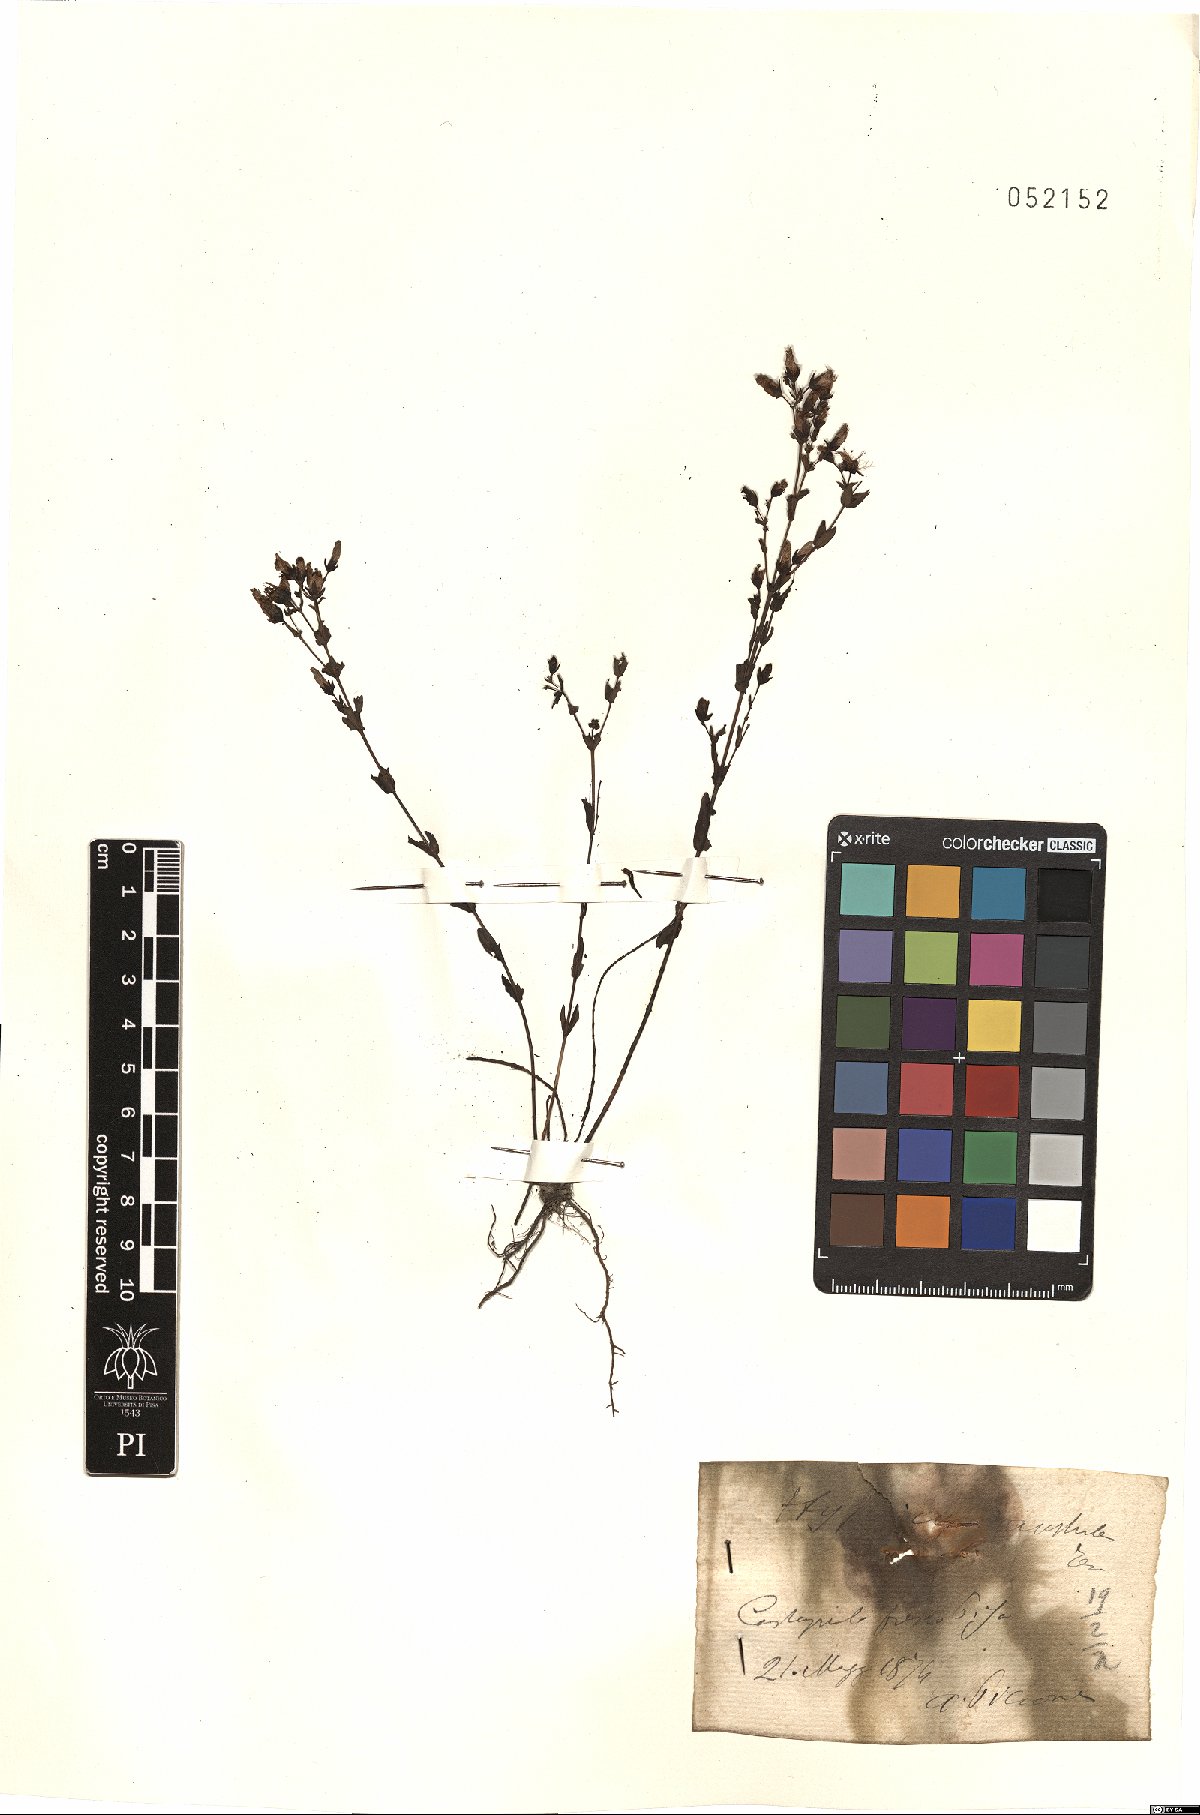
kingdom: Plantae
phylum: Tracheophyta
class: Magnoliopsida
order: Malpighiales
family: Hypericaceae
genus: Hypericum
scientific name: Hypericum australe
